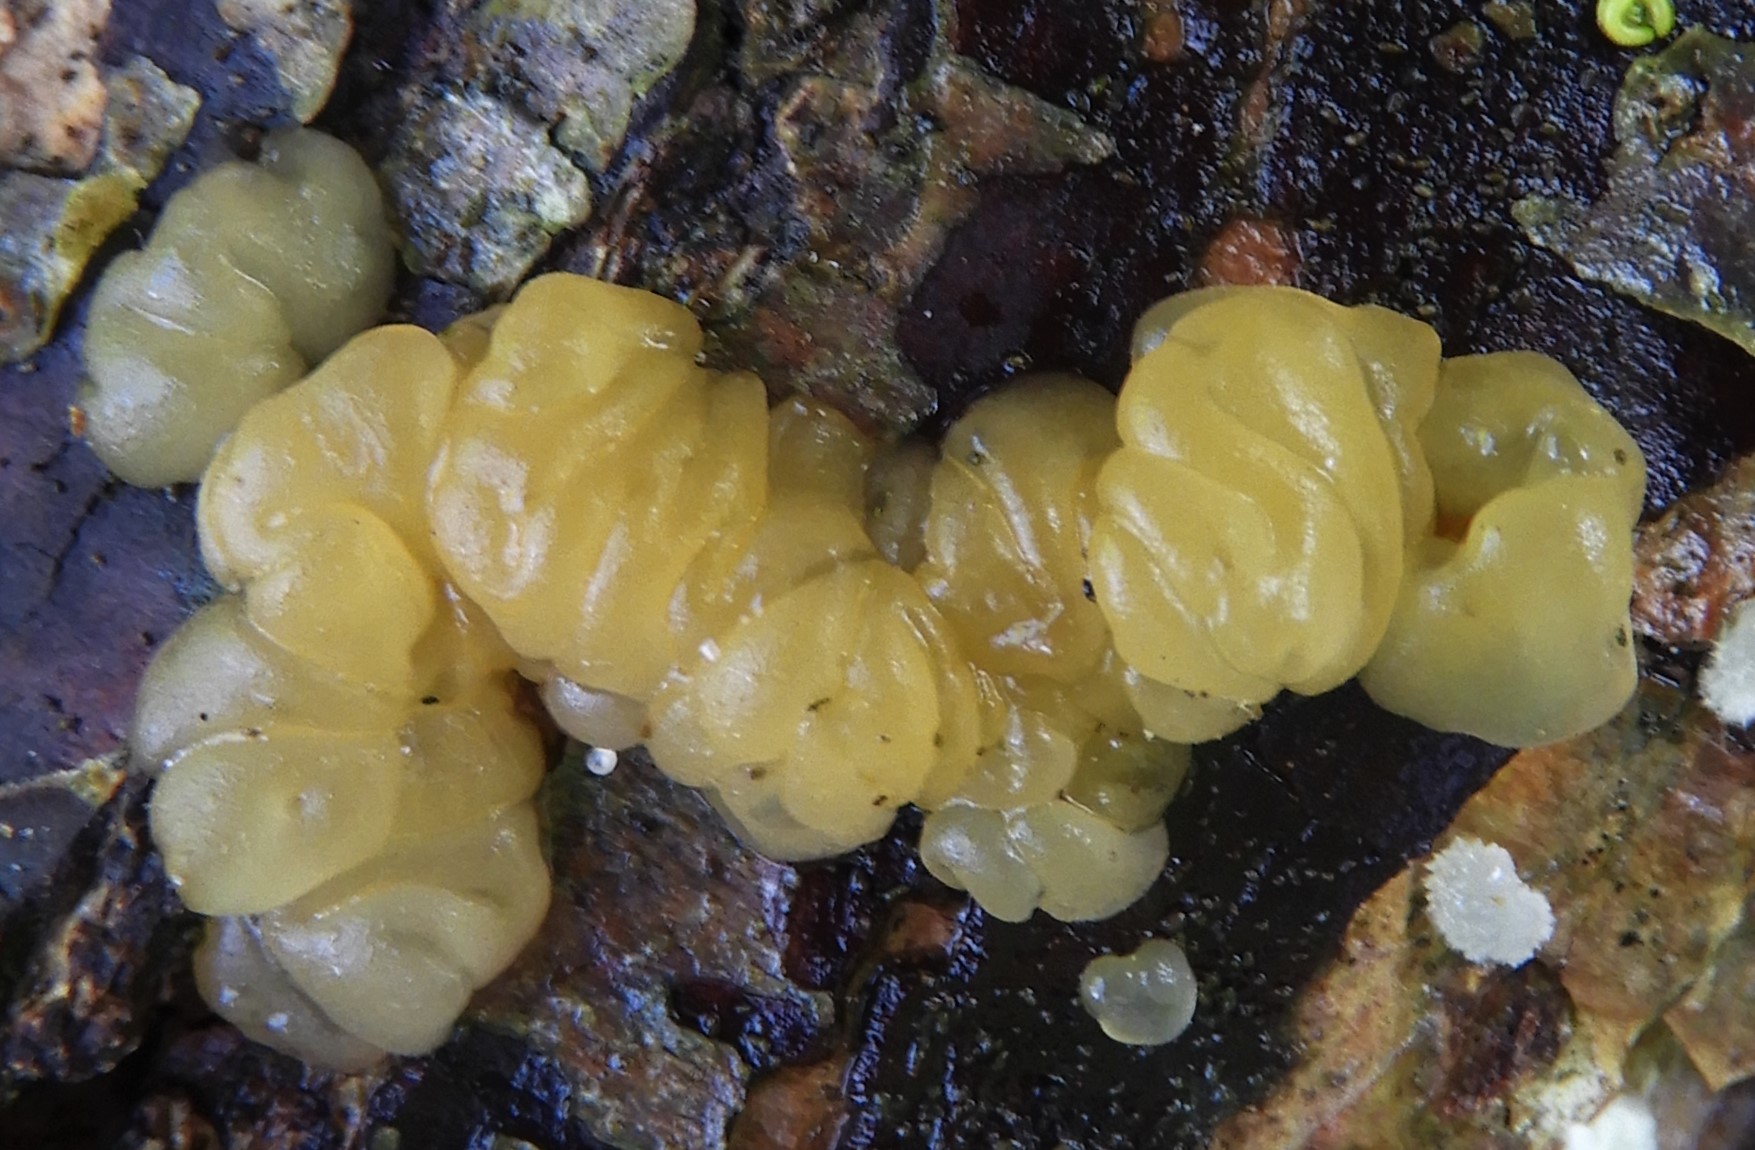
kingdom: Fungi
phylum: Basidiomycota
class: Dacrymycetes
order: Dacrymycetales
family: Dacrymycetaceae
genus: Dacrymyces
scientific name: Dacrymyces lacrymalis
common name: rynket tåresvamp
